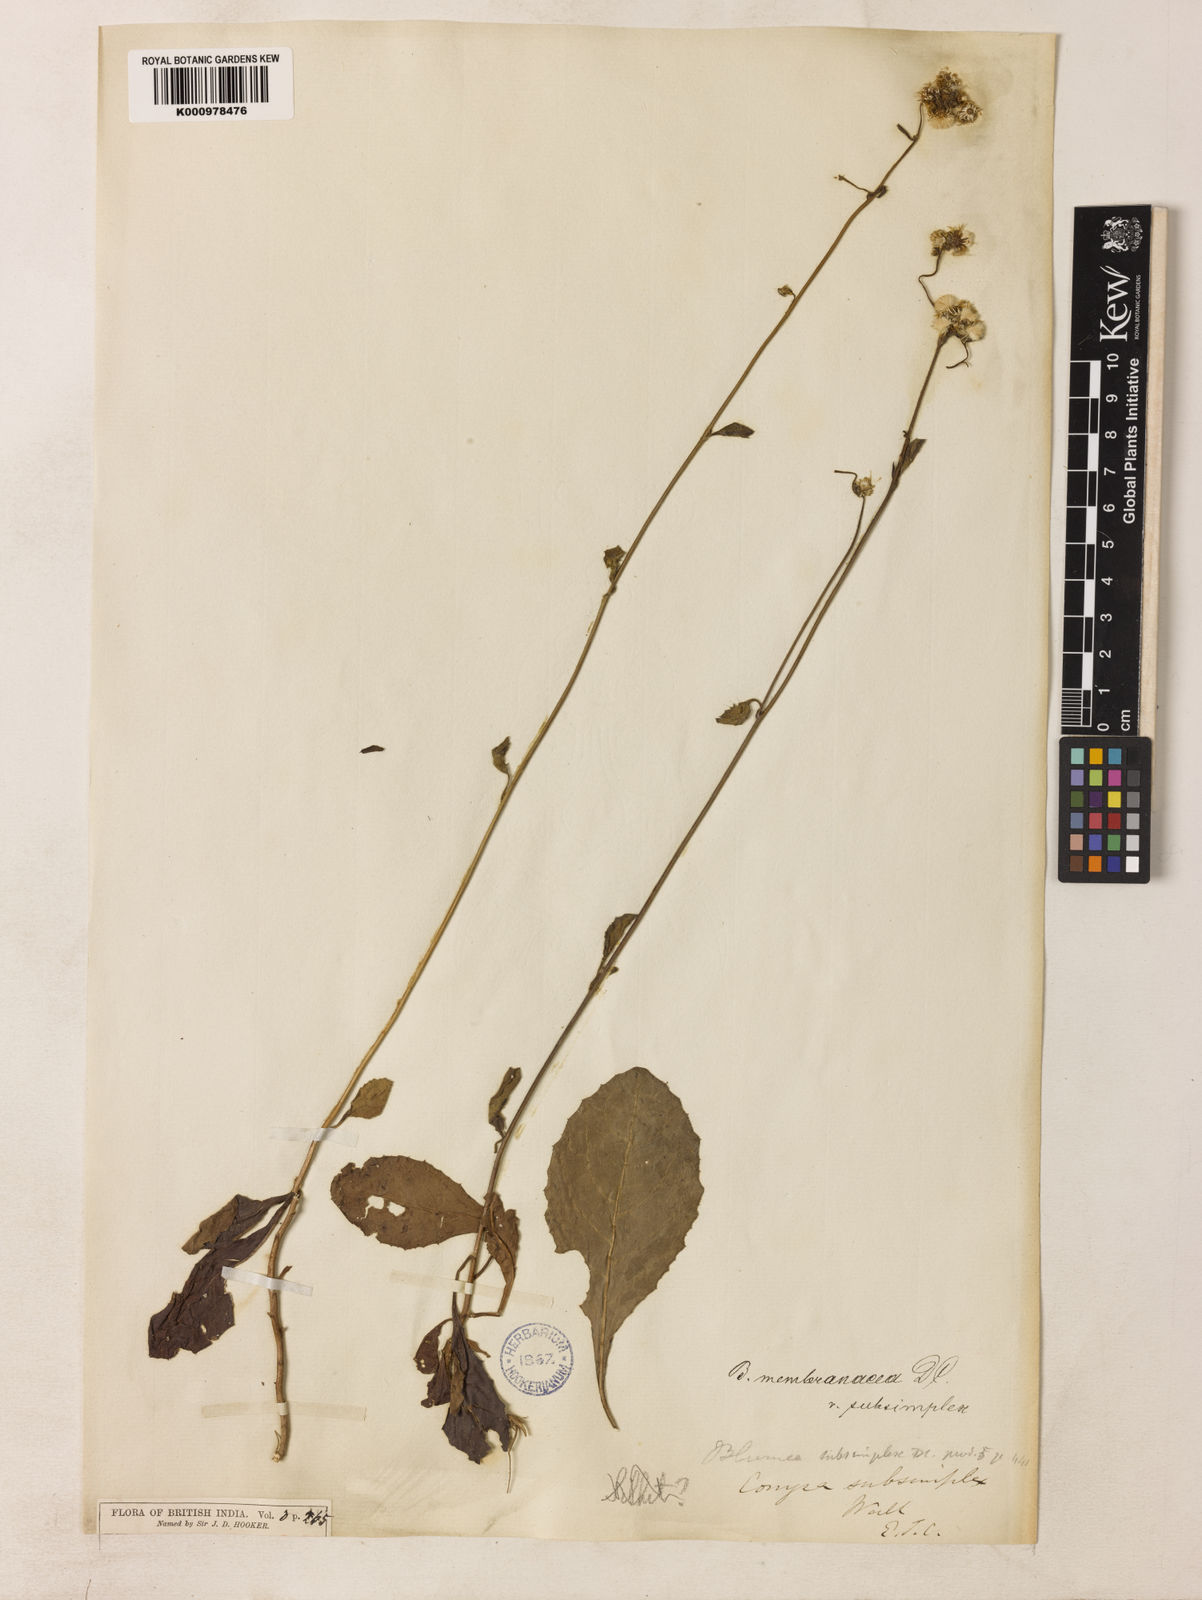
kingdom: Plantae
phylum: Tracheophyta
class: Magnoliopsida
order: Asterales
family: Asteraceae
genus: Blumea
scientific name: Blumea
